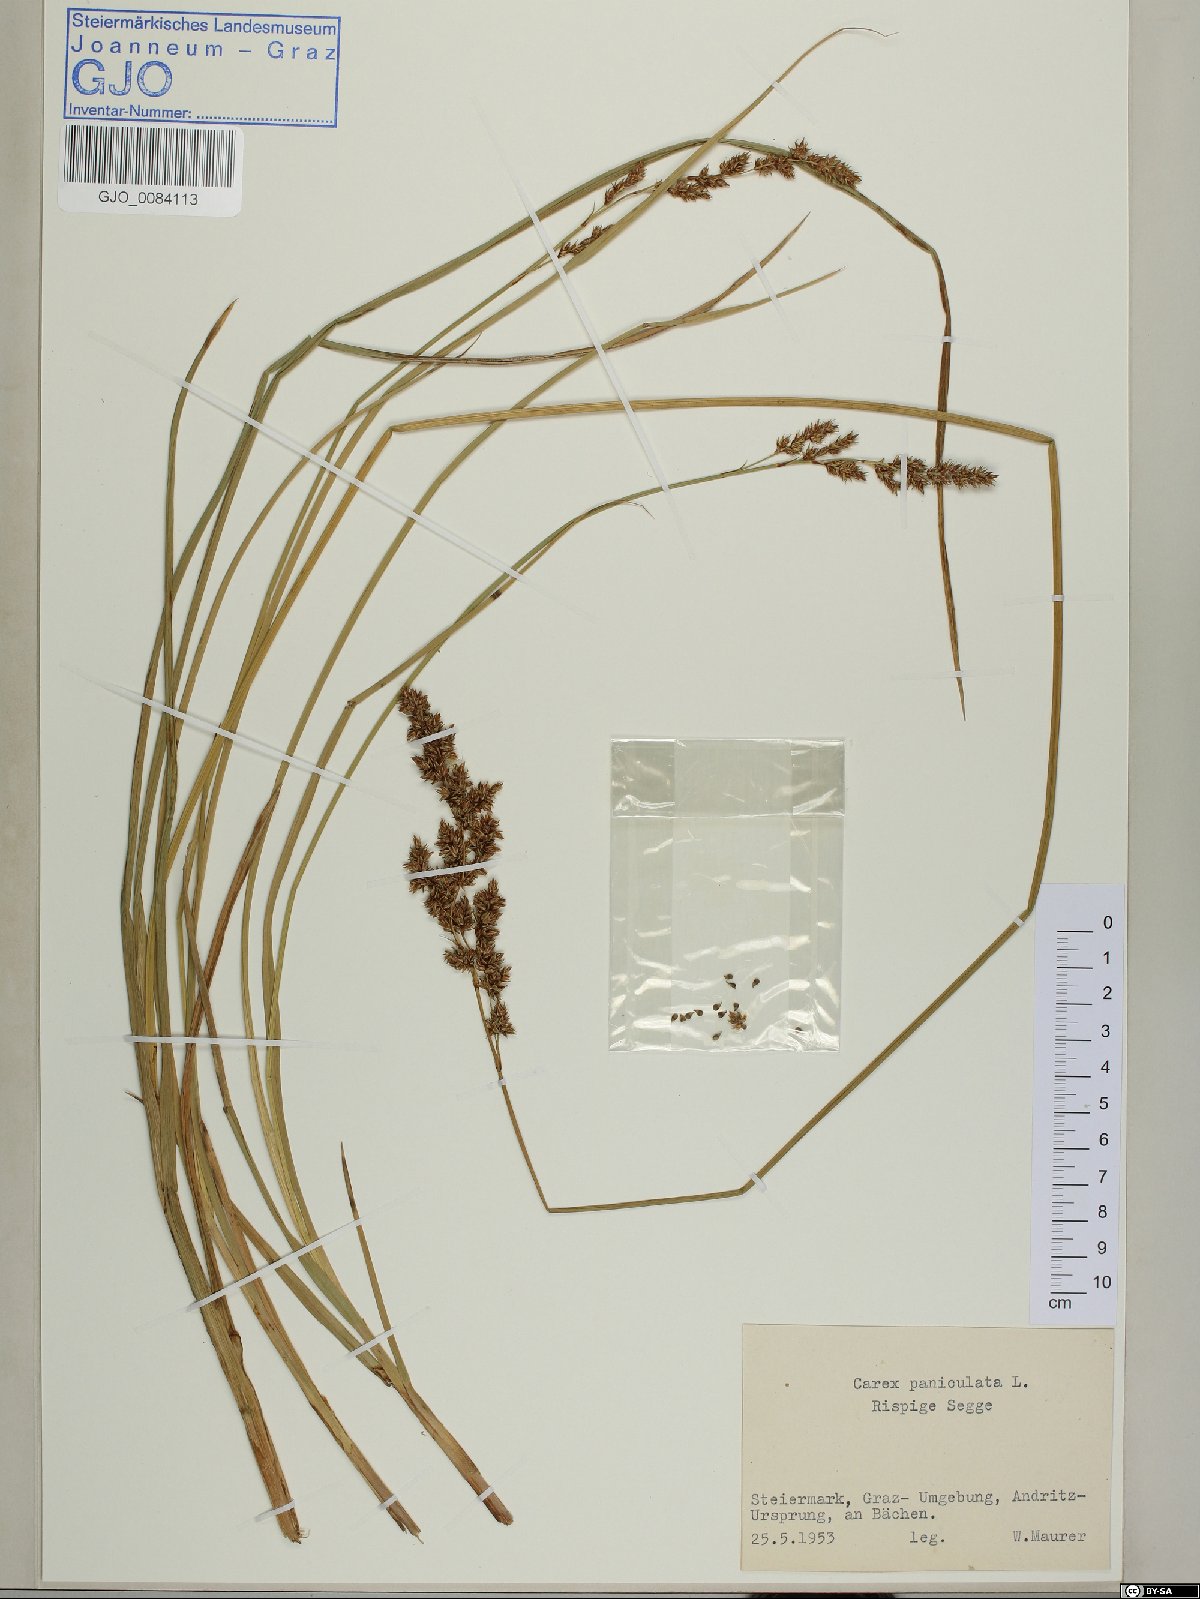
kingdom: Plantae
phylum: Tracheophyta
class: Liliopsida
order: Poales
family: Cyperaceae
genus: Carex
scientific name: Carex paniculata
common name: Greater tussock-sedge
